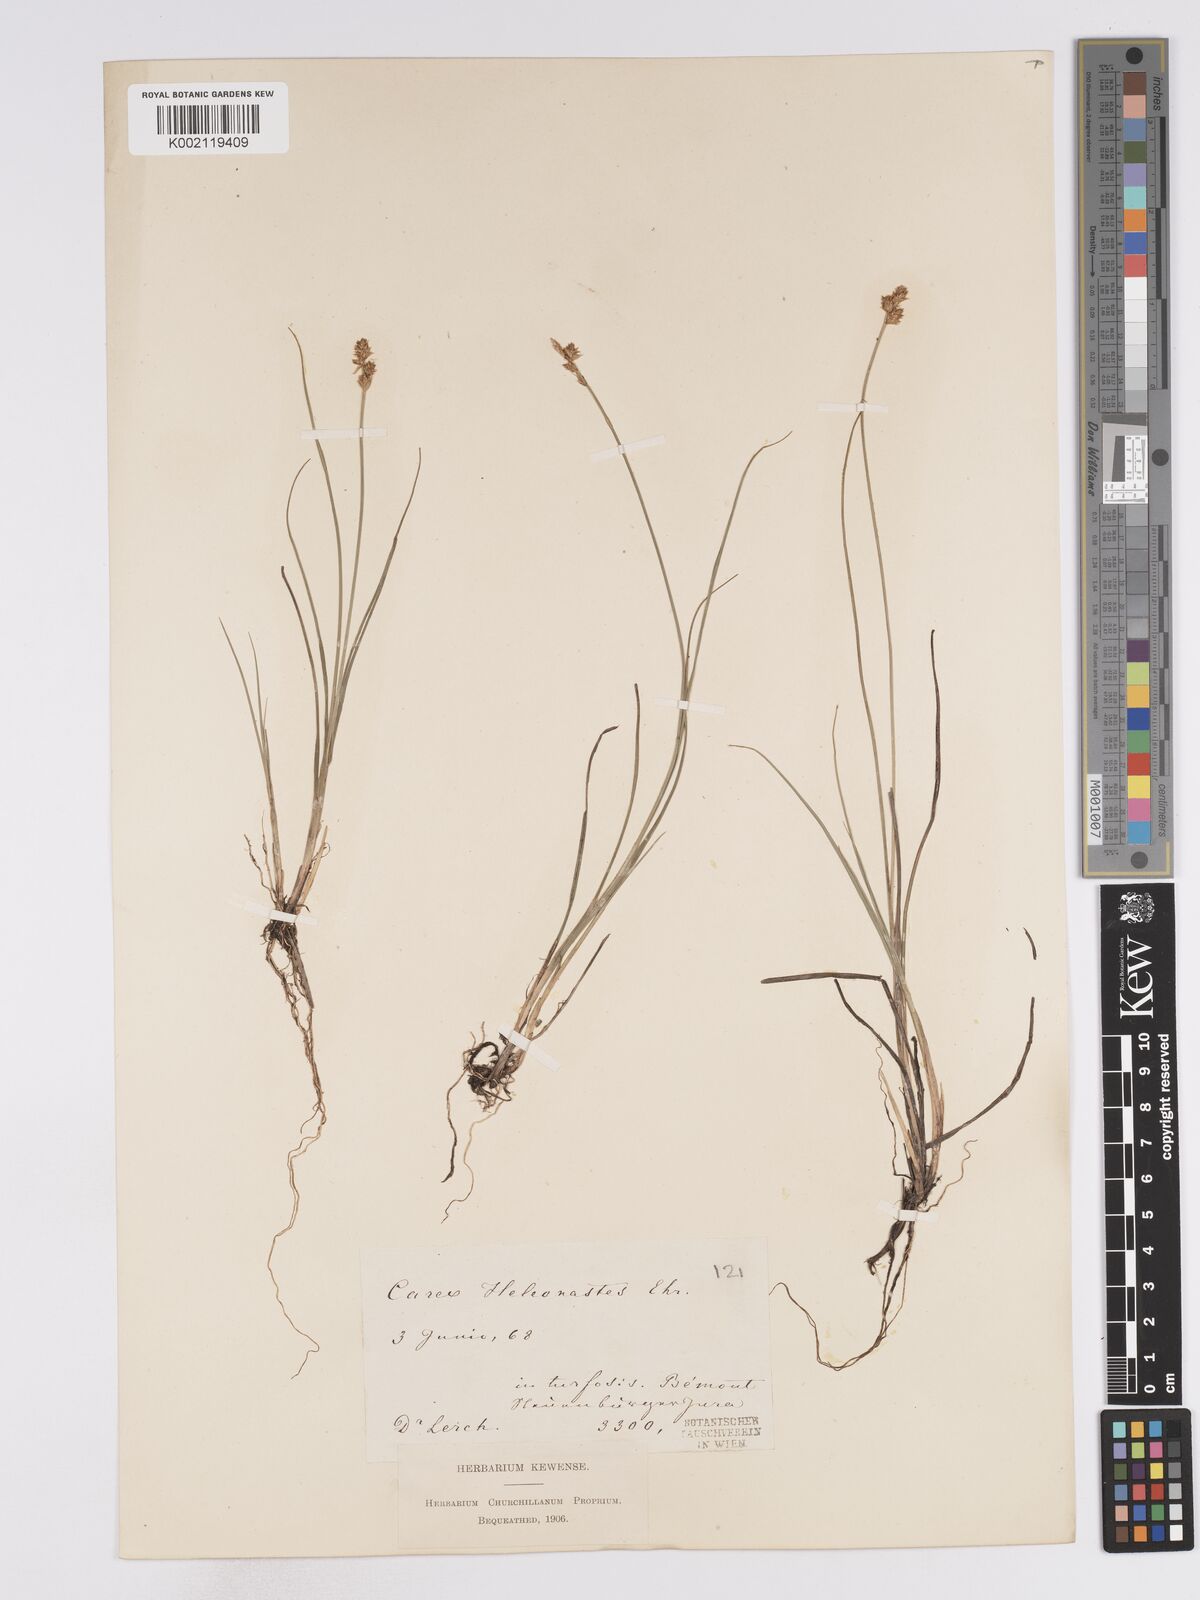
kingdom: Plantae
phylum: Tracheophyta
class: Liliopsida
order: Poales
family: Cyperaceae
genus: Carex
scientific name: Carex heleonastes
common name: Hudson bay sedge
